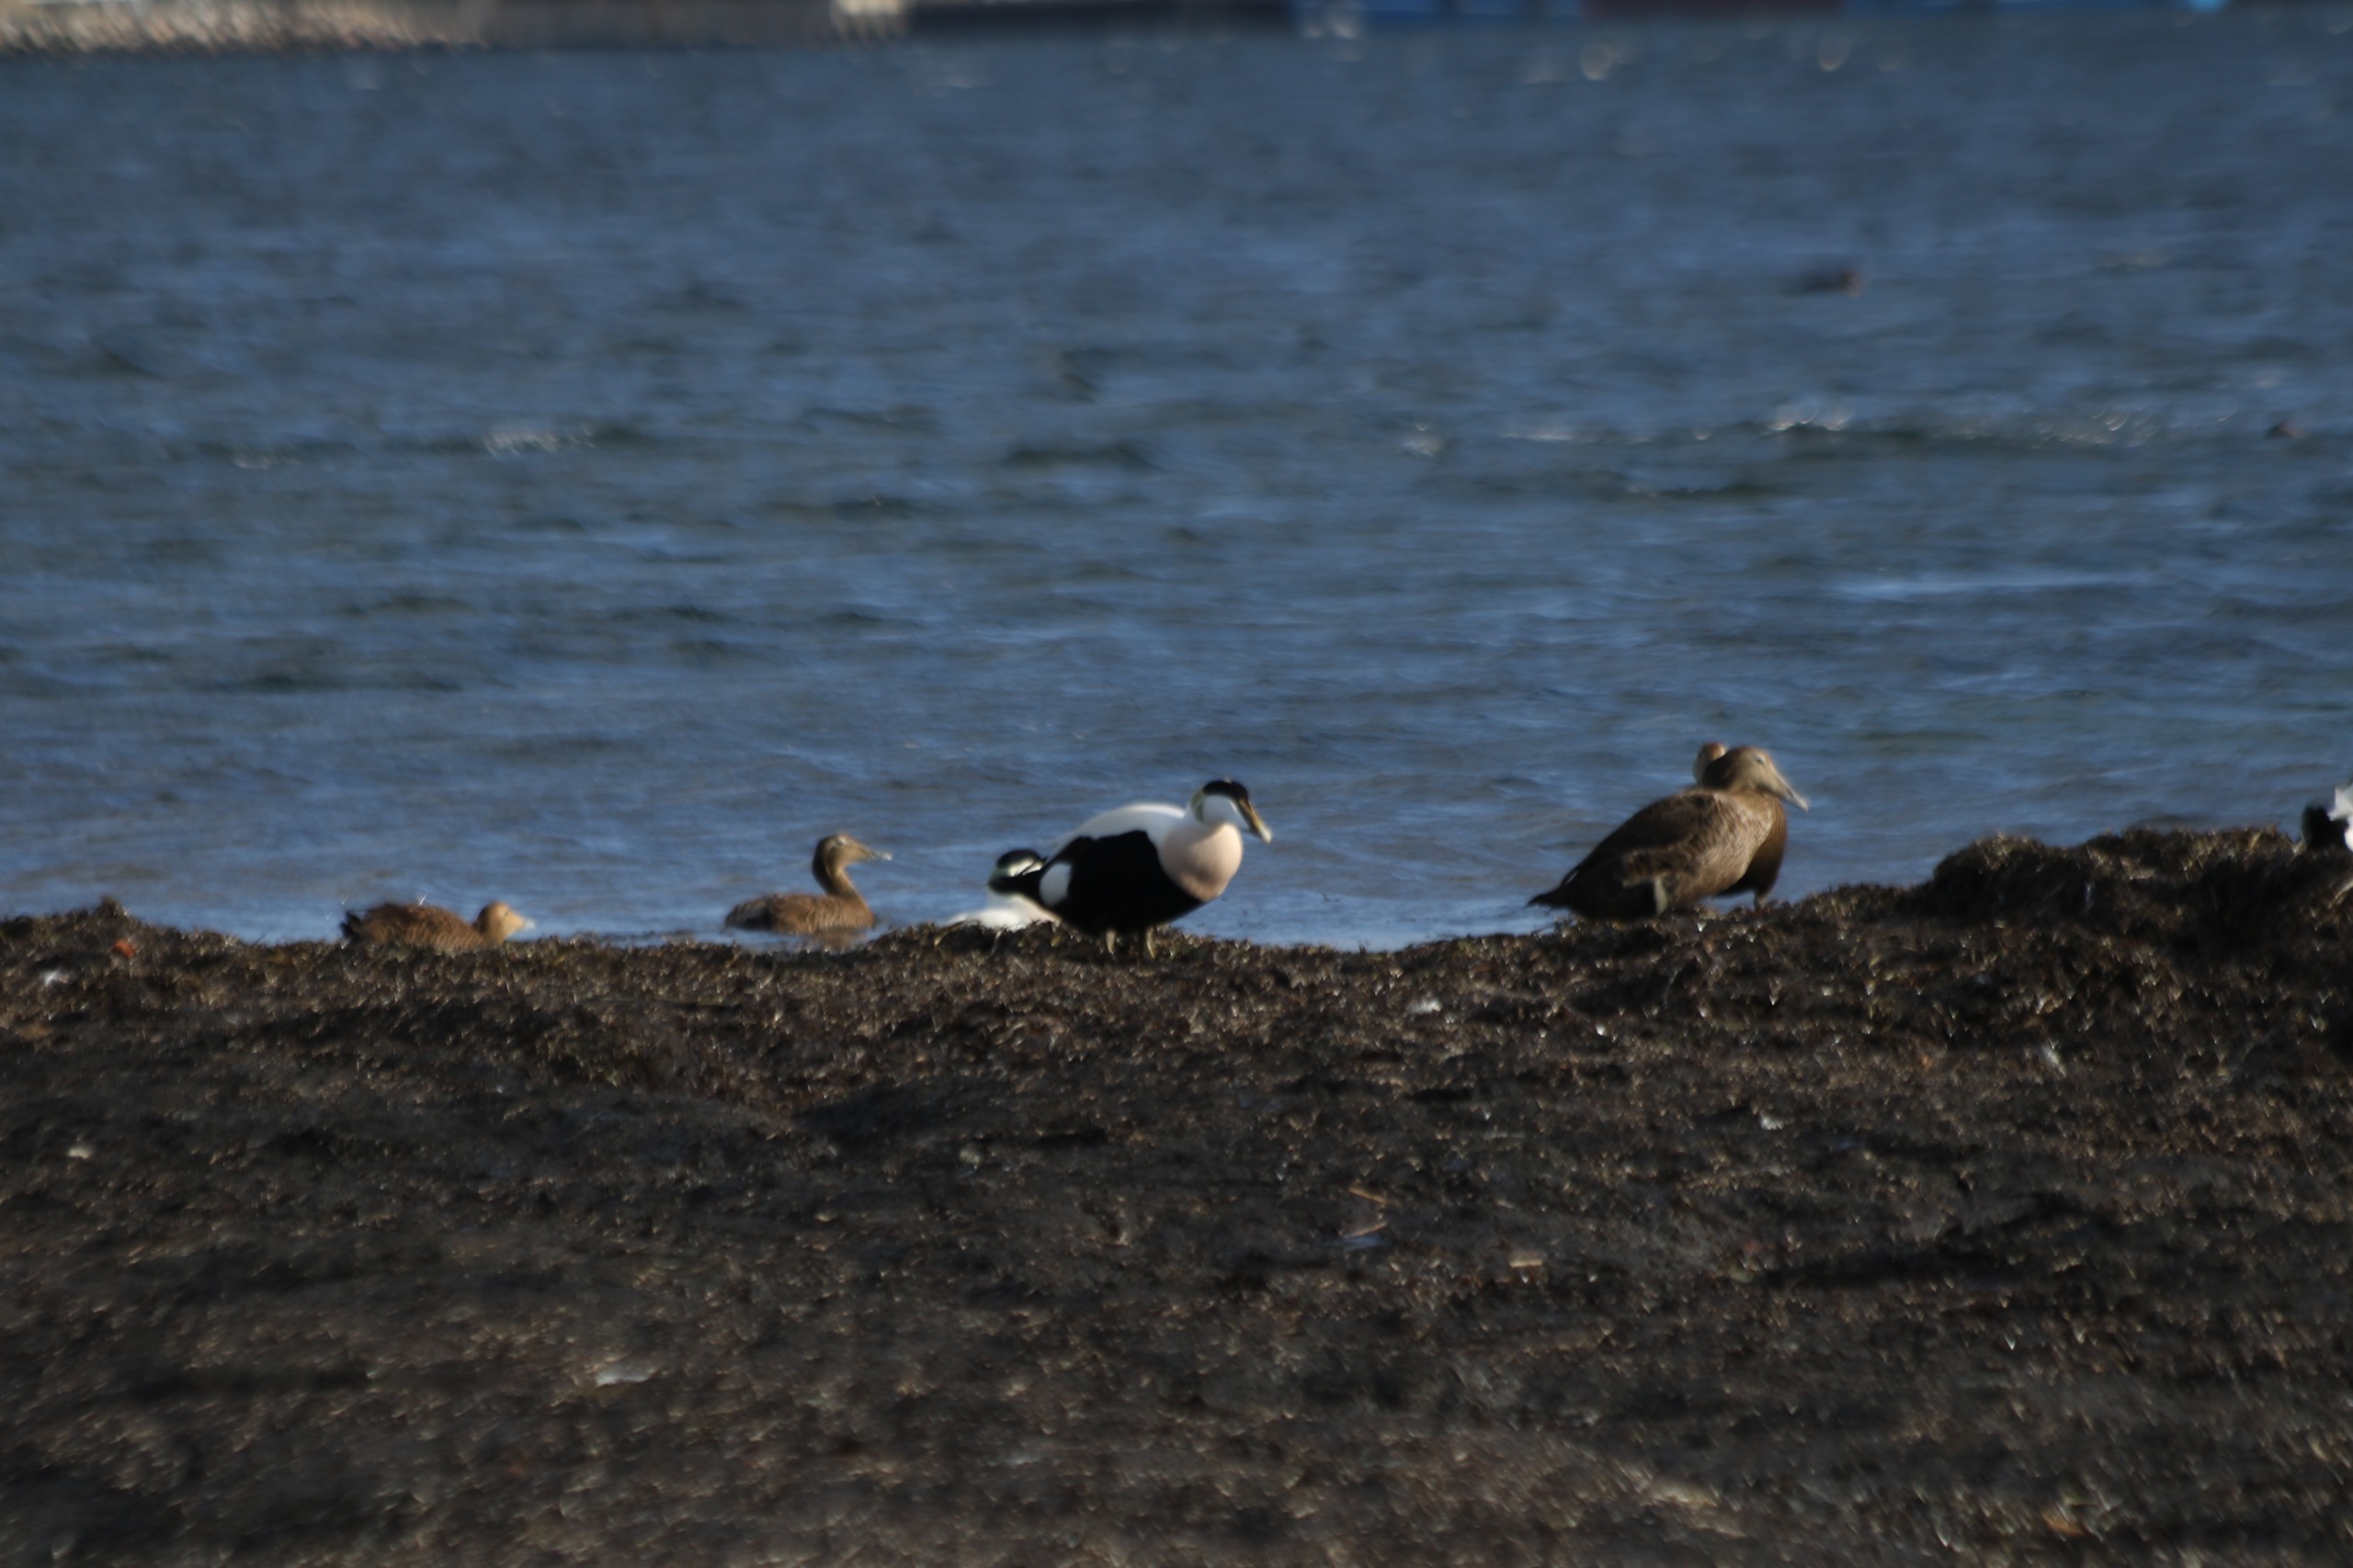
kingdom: Animalia
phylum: Chordata
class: Aves
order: Anseriformes
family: Anatidae
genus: Somateria
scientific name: Somateria mollissima
